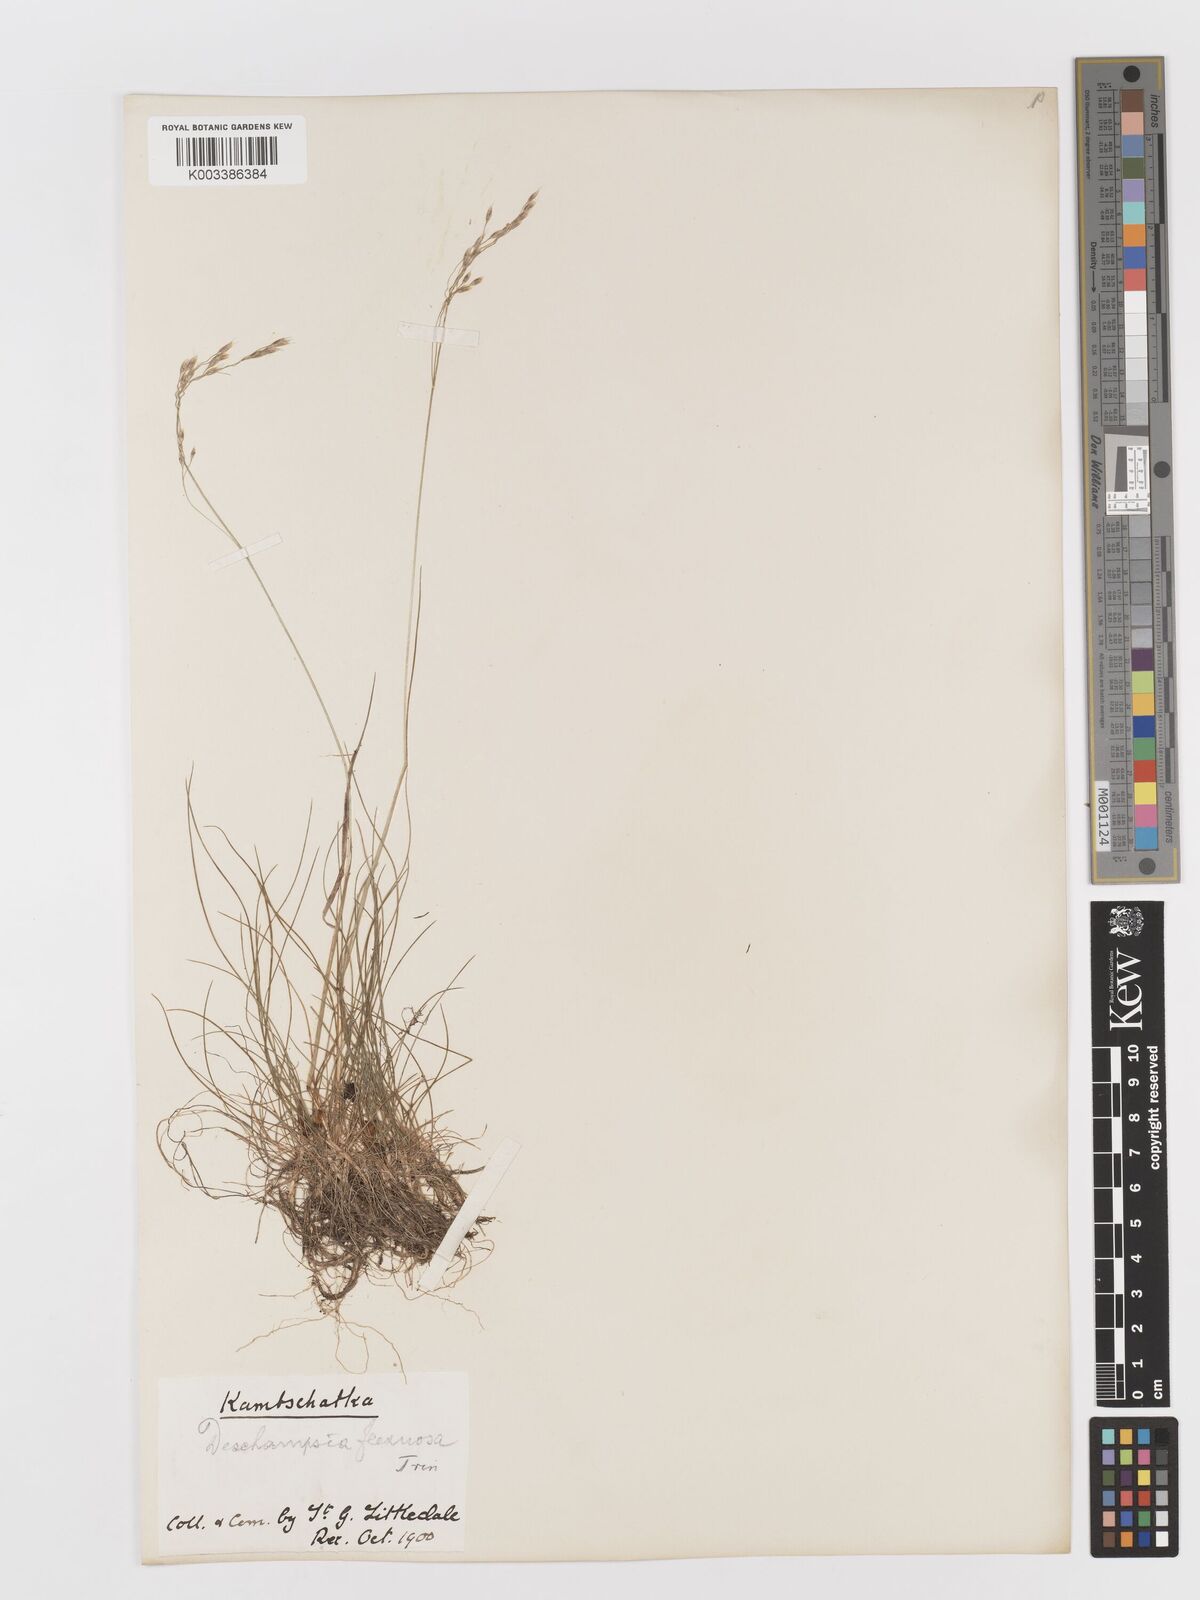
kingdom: Plantae
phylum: Tracheophyta
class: Liliopsida
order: Poales
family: Poaceae
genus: Avenella
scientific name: Avenella flexuosa
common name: Wavy hairgrass
